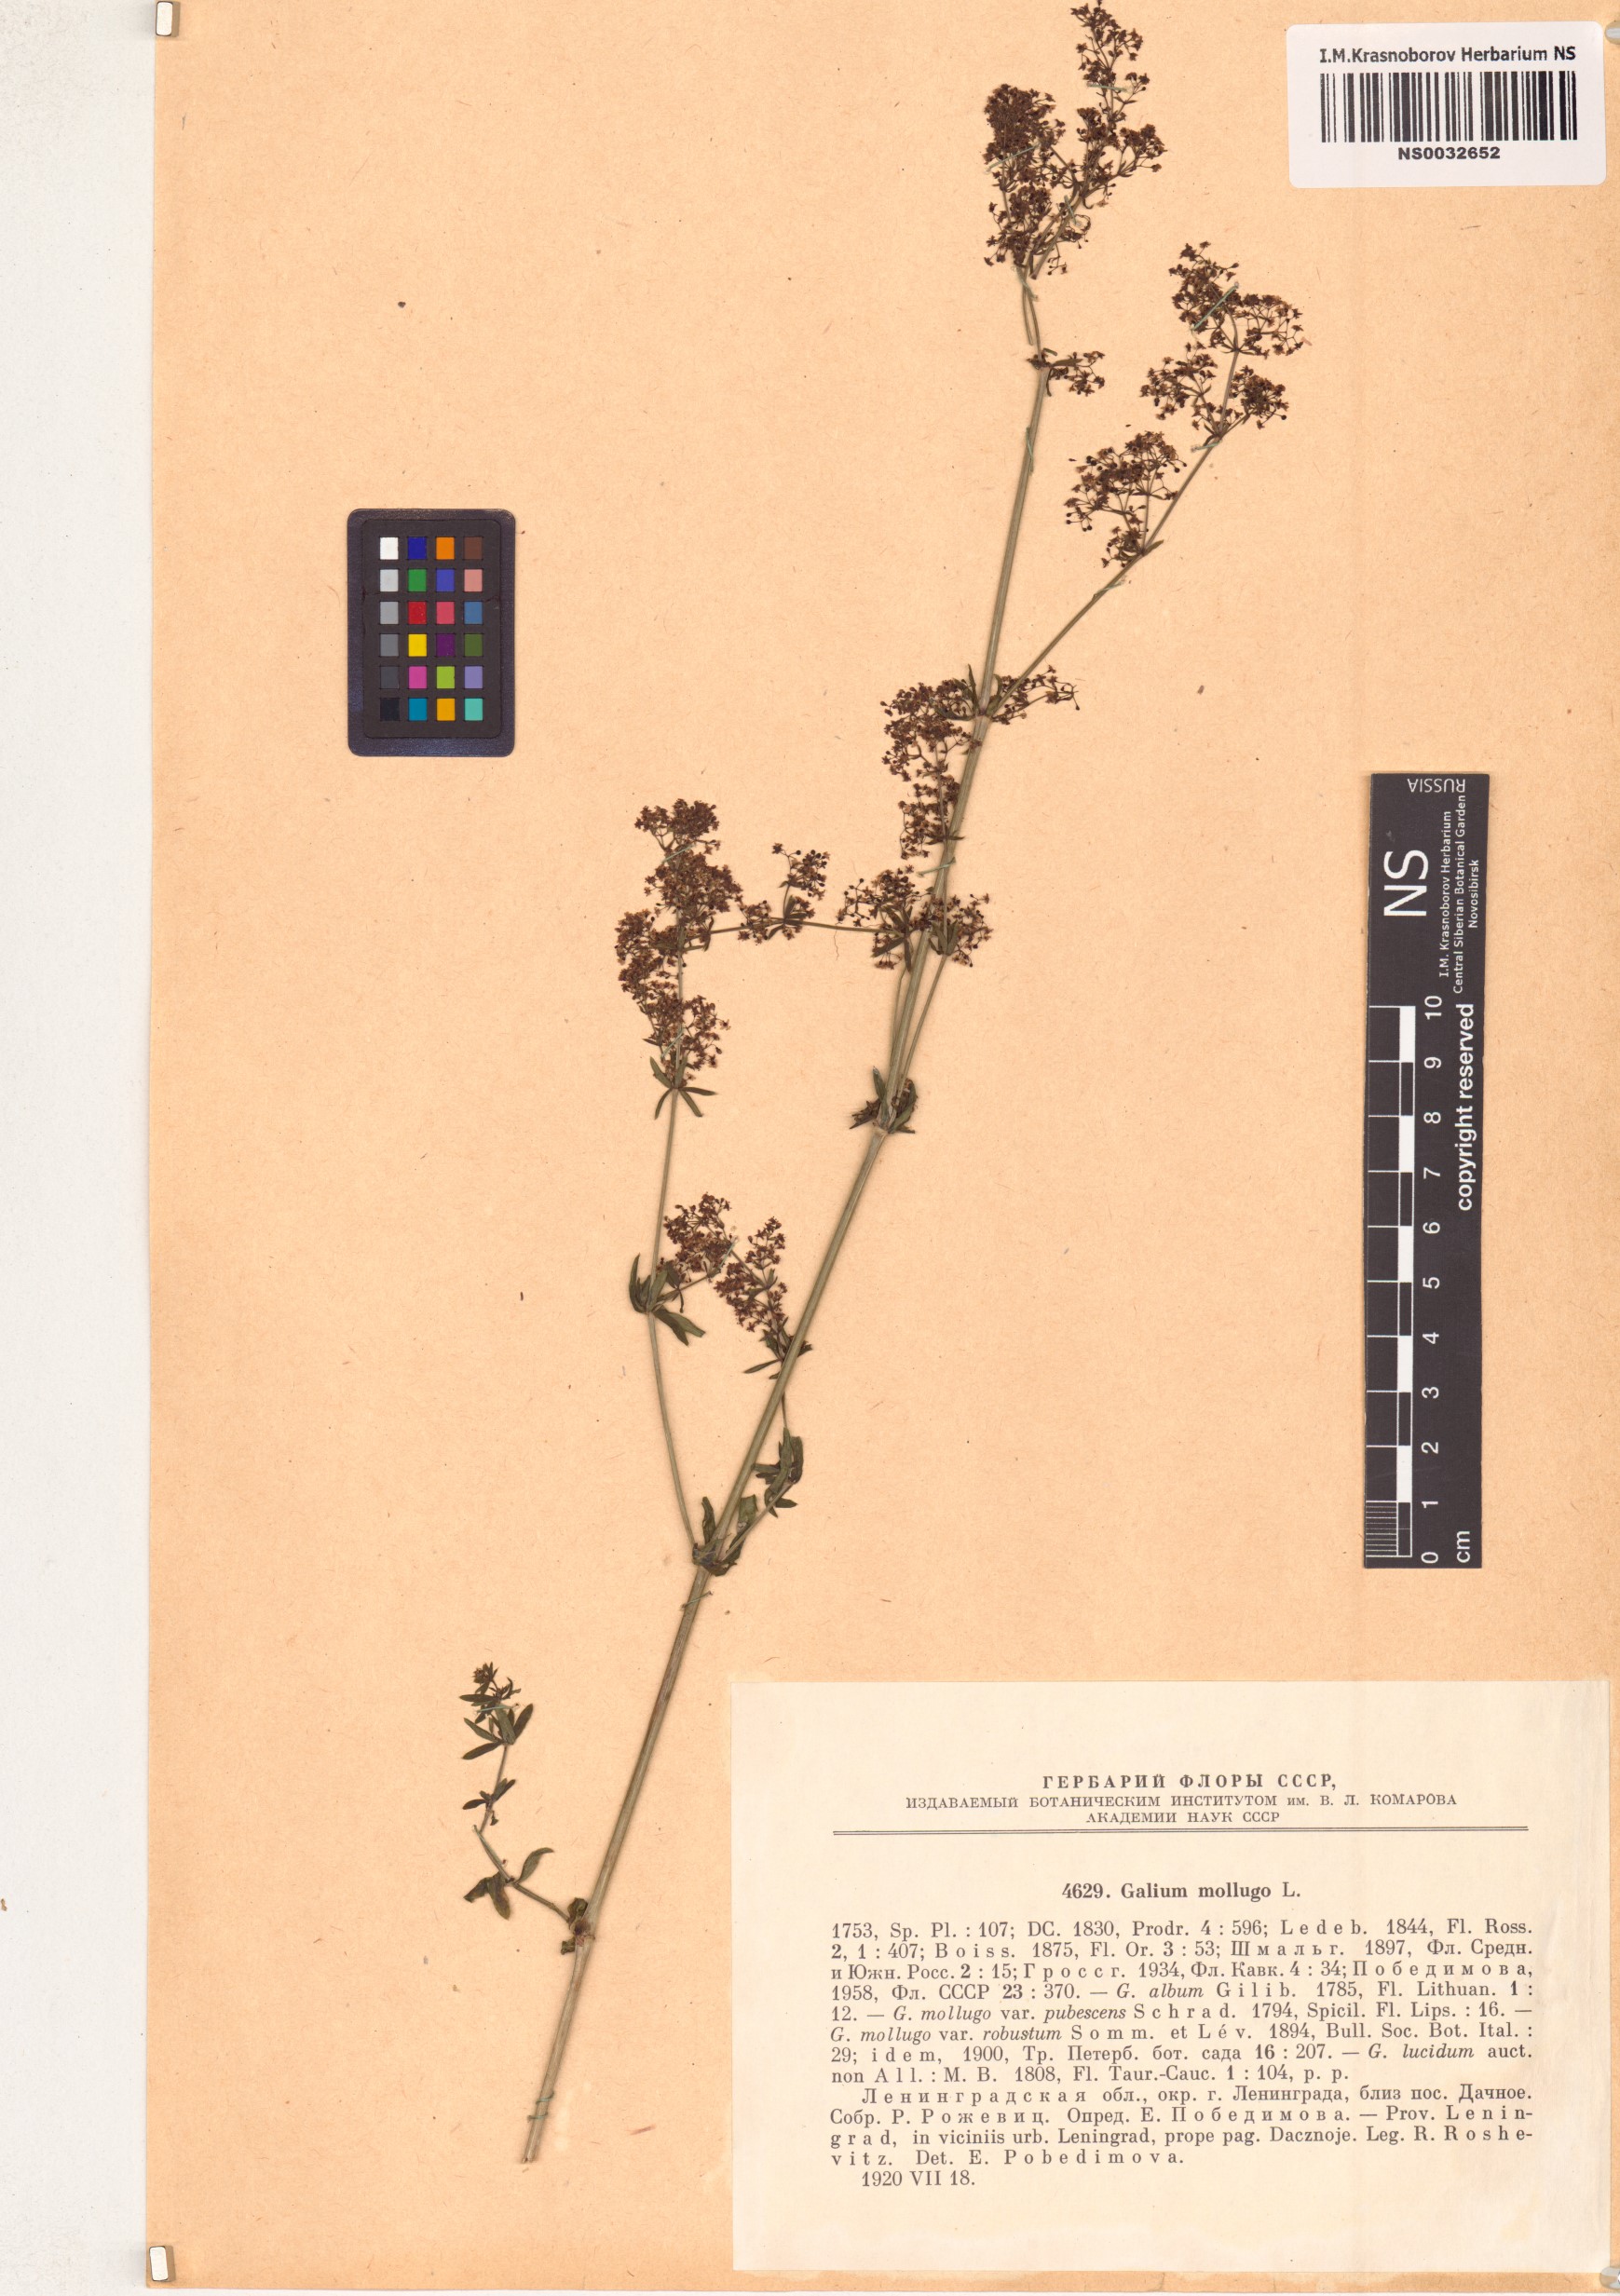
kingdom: Plantae
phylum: Tracheophyta
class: Magnoliopsida
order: Gentianales
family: Rubiaceae
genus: Galium
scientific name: Galium mollugo
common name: Hedge bedstraw
